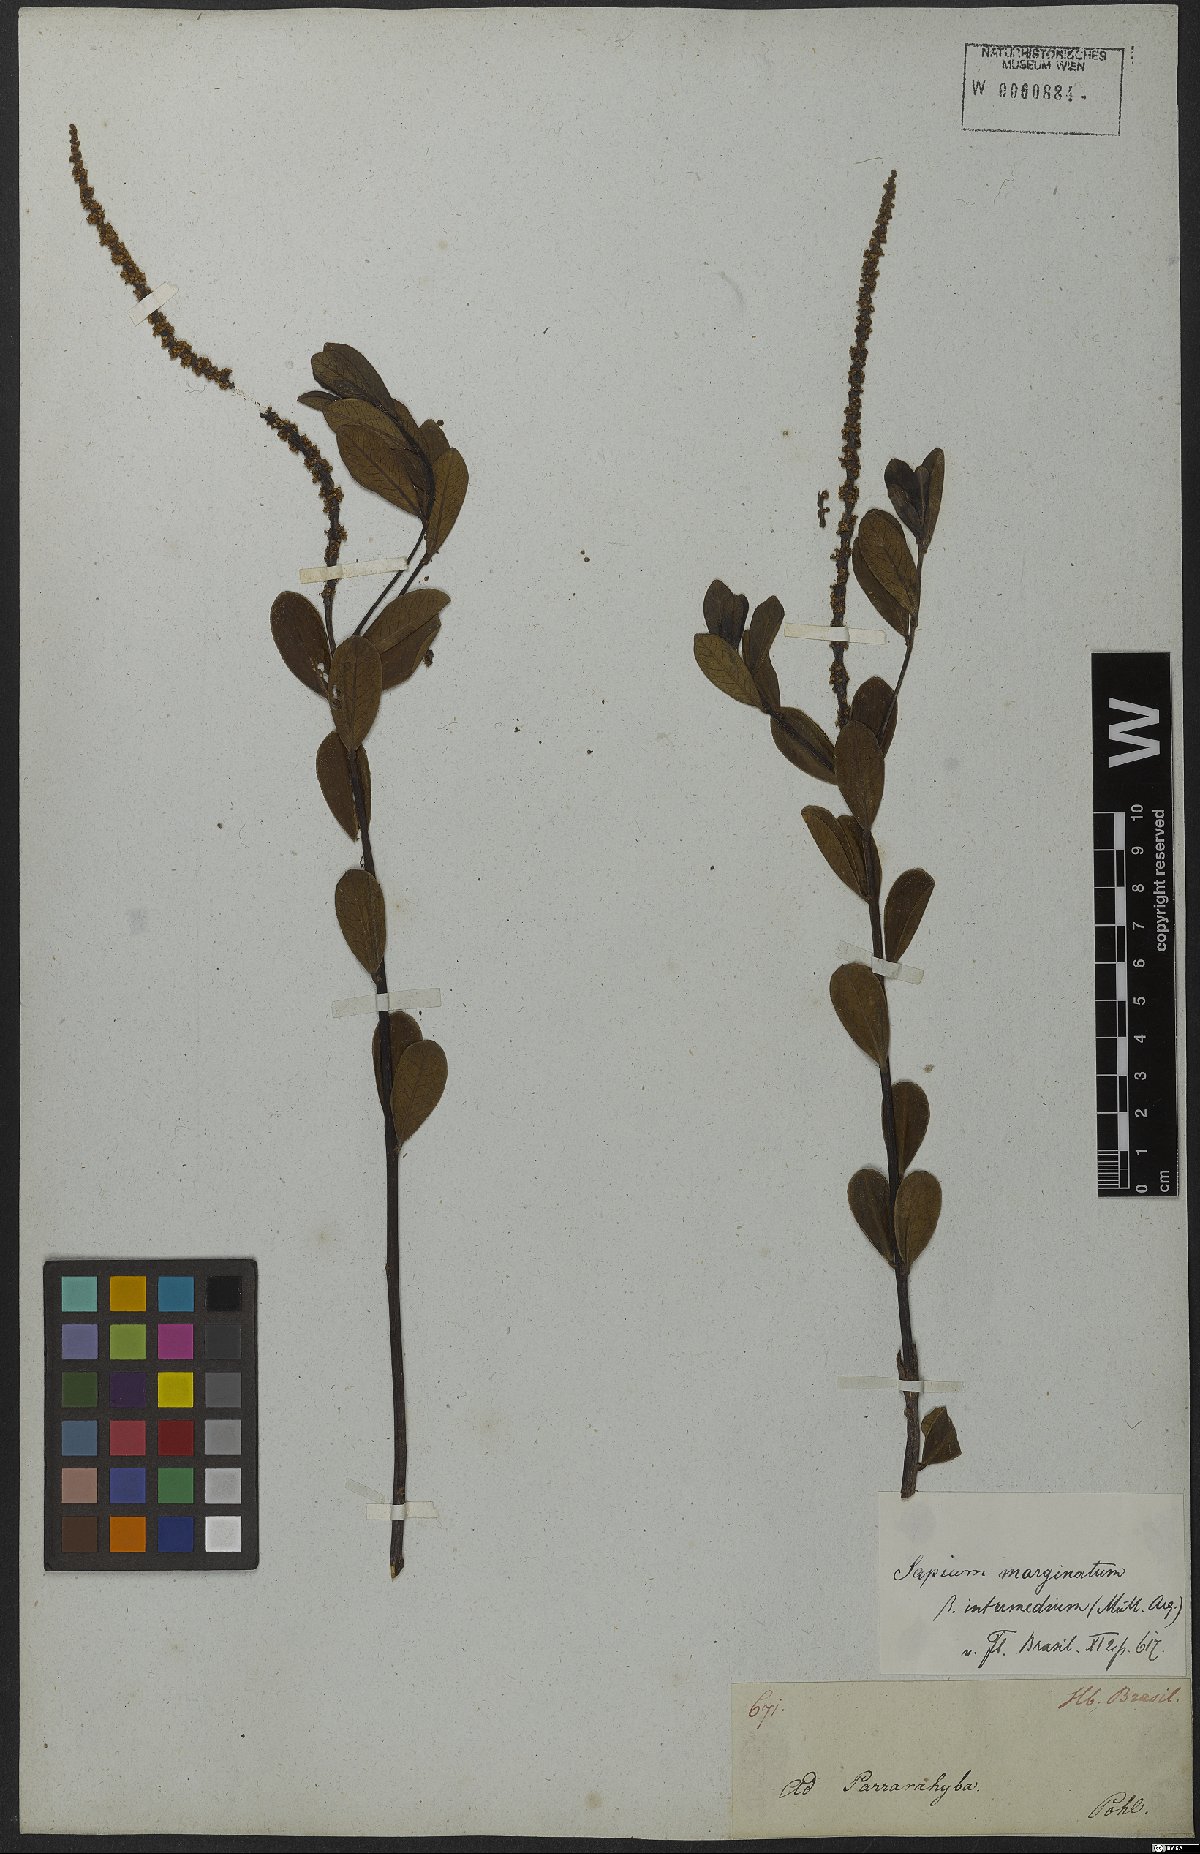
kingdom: Plantae
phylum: Tracheophyta
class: Magnoliopsida
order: Malpighiales
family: Euphorbiaceae
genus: Sapium
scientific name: Sapium obovatum
